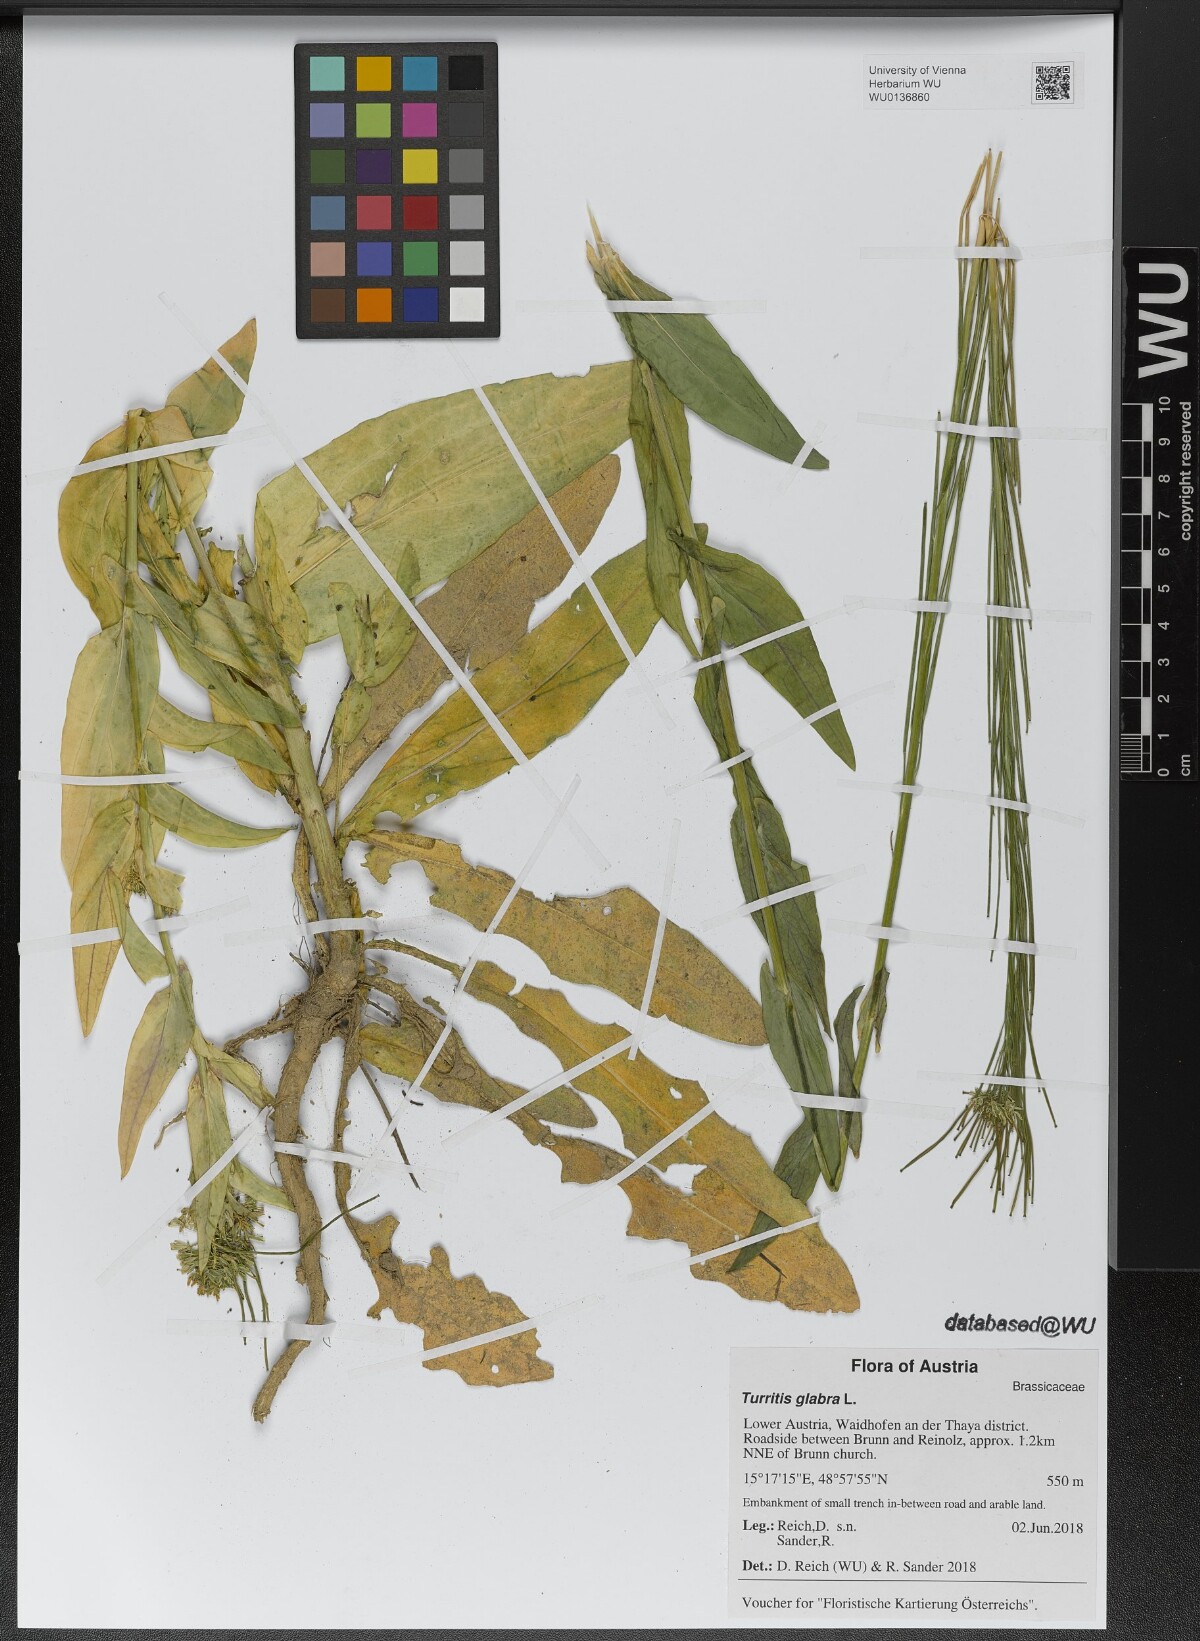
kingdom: Plantae
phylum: Tracheophyta
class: Magnoliopsida
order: Brassicales
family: Brassicaceae
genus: Turritis
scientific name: Turritis glabra
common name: Tower rockcress
